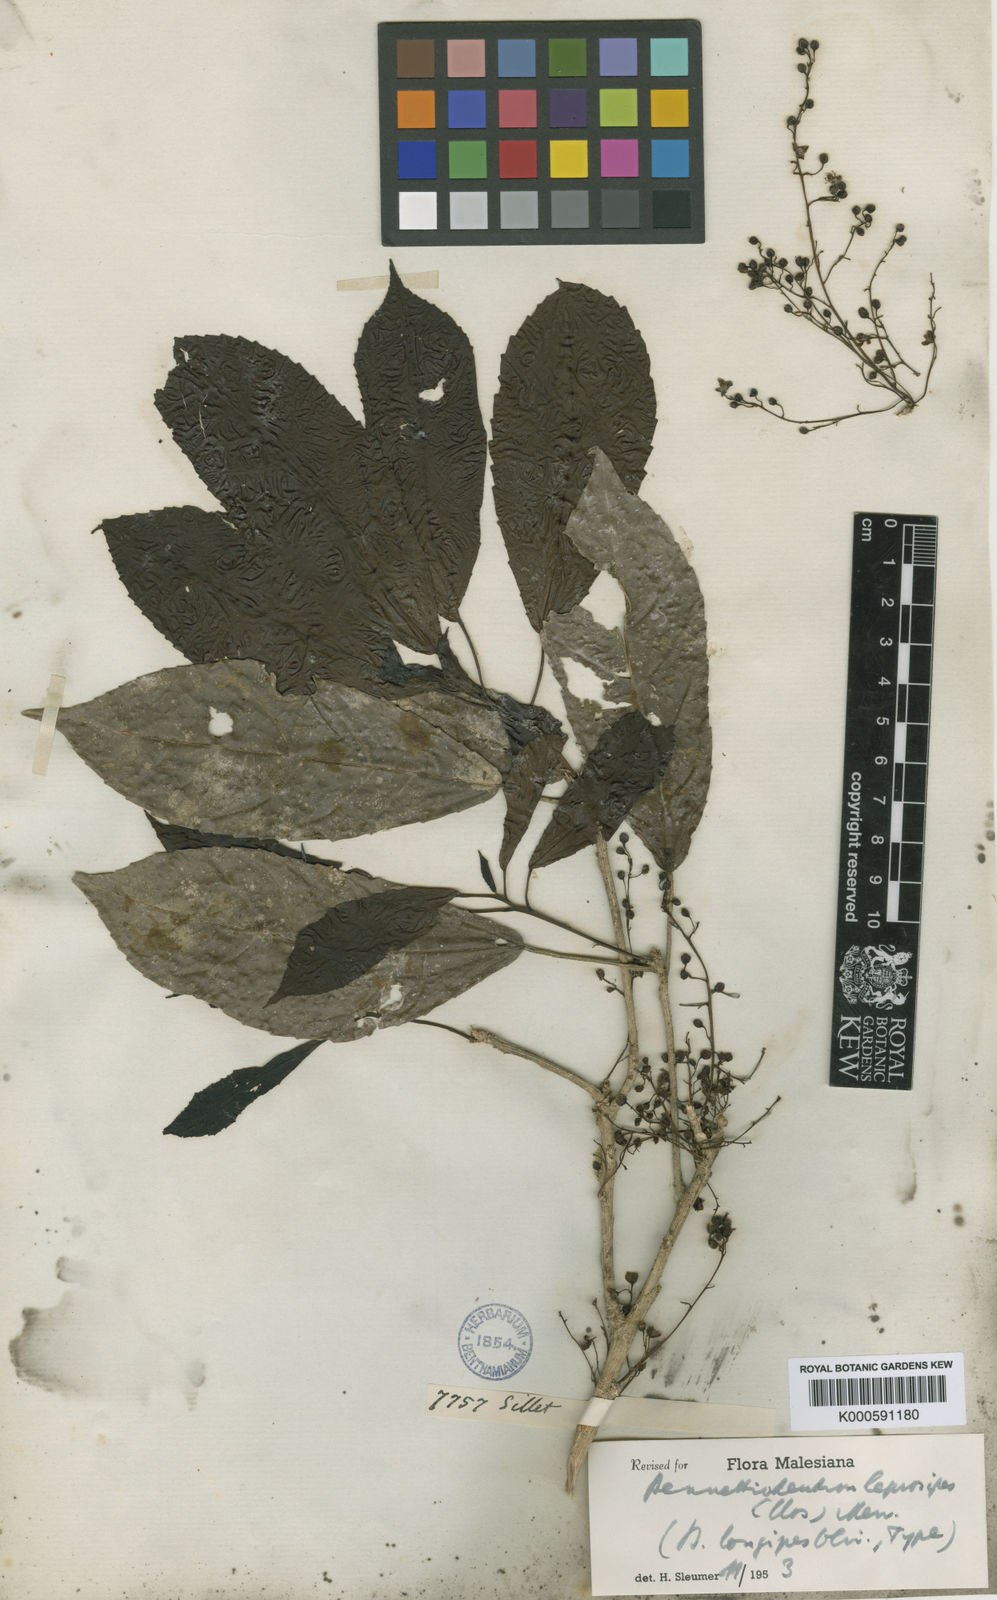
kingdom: Plantae
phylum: Tracheophyta
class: Magnoliopsida
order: Malpighiales
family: Salicaceae
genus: Bennettiodendron
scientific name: Bennettiodendron leprosipes
